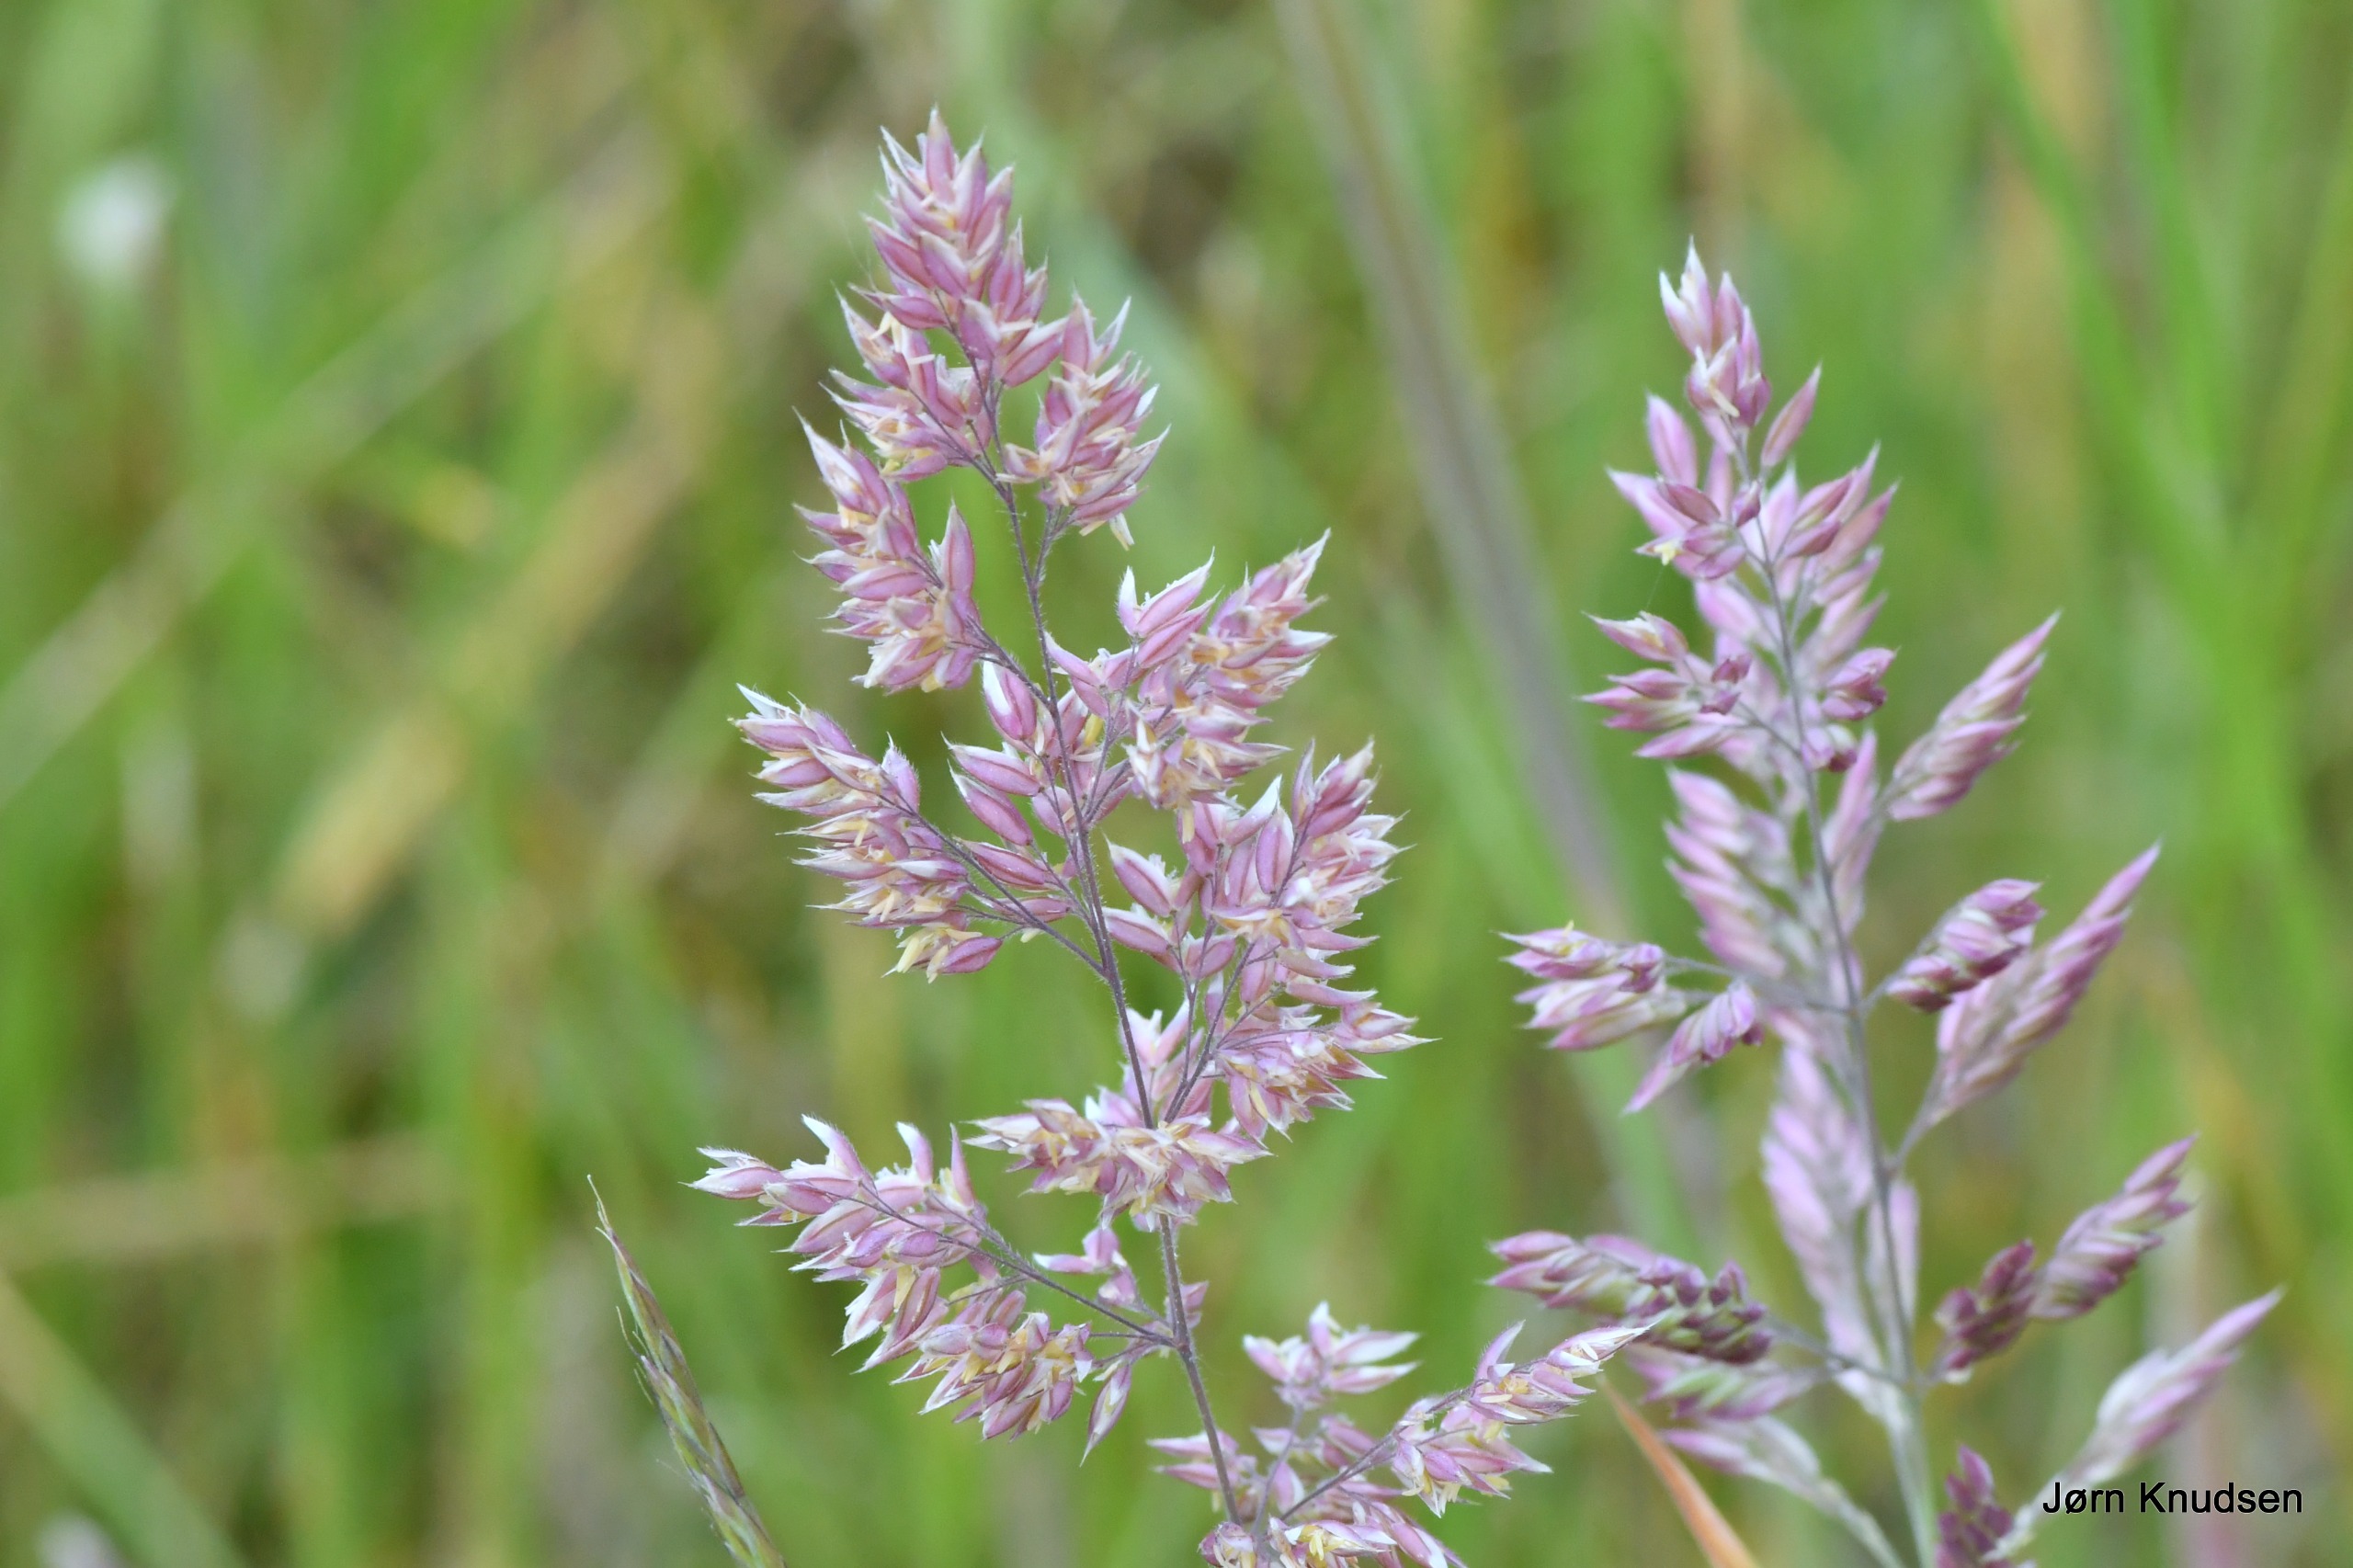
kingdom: Plantae
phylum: Tracheophyta
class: Liliopsida
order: Poales
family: Poaceae
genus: Holcus
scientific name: Holcus lanatus
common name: Fløjlsgræs
